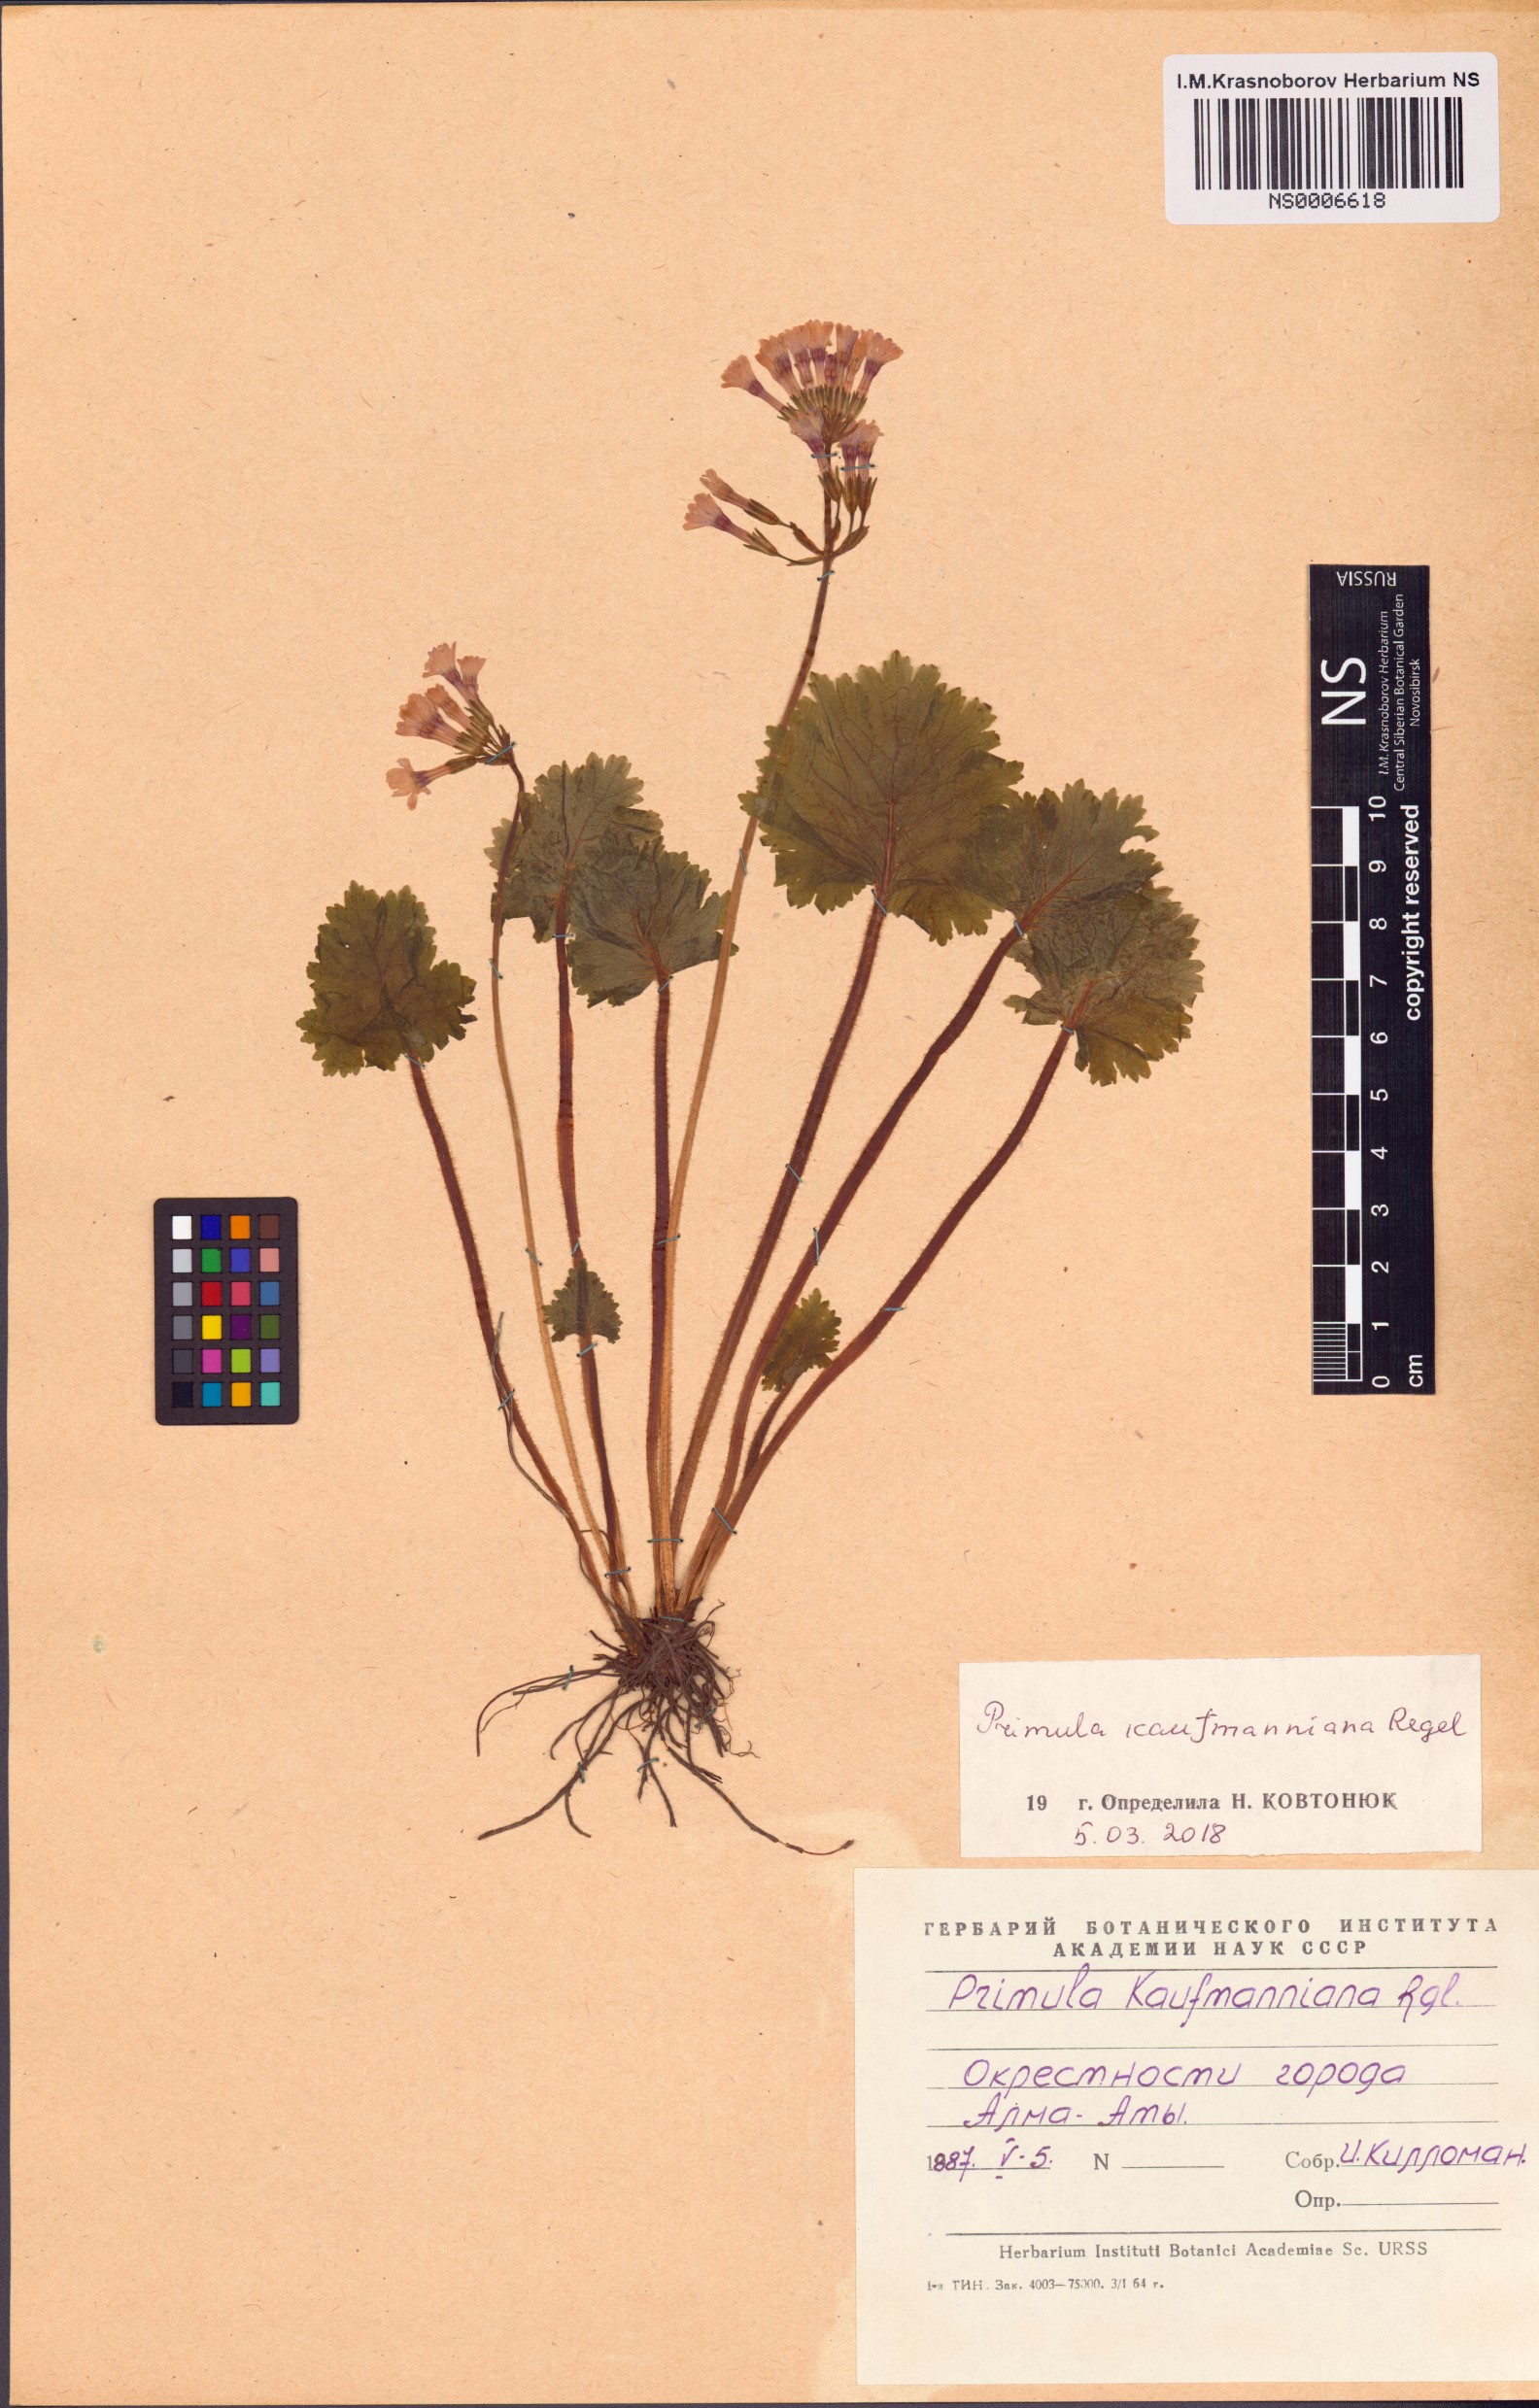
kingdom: Plantae
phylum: Tracheophyta
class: Magnoliopsida
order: Ericales
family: Primulaceae
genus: Primula
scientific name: Primula kaufmanniana
